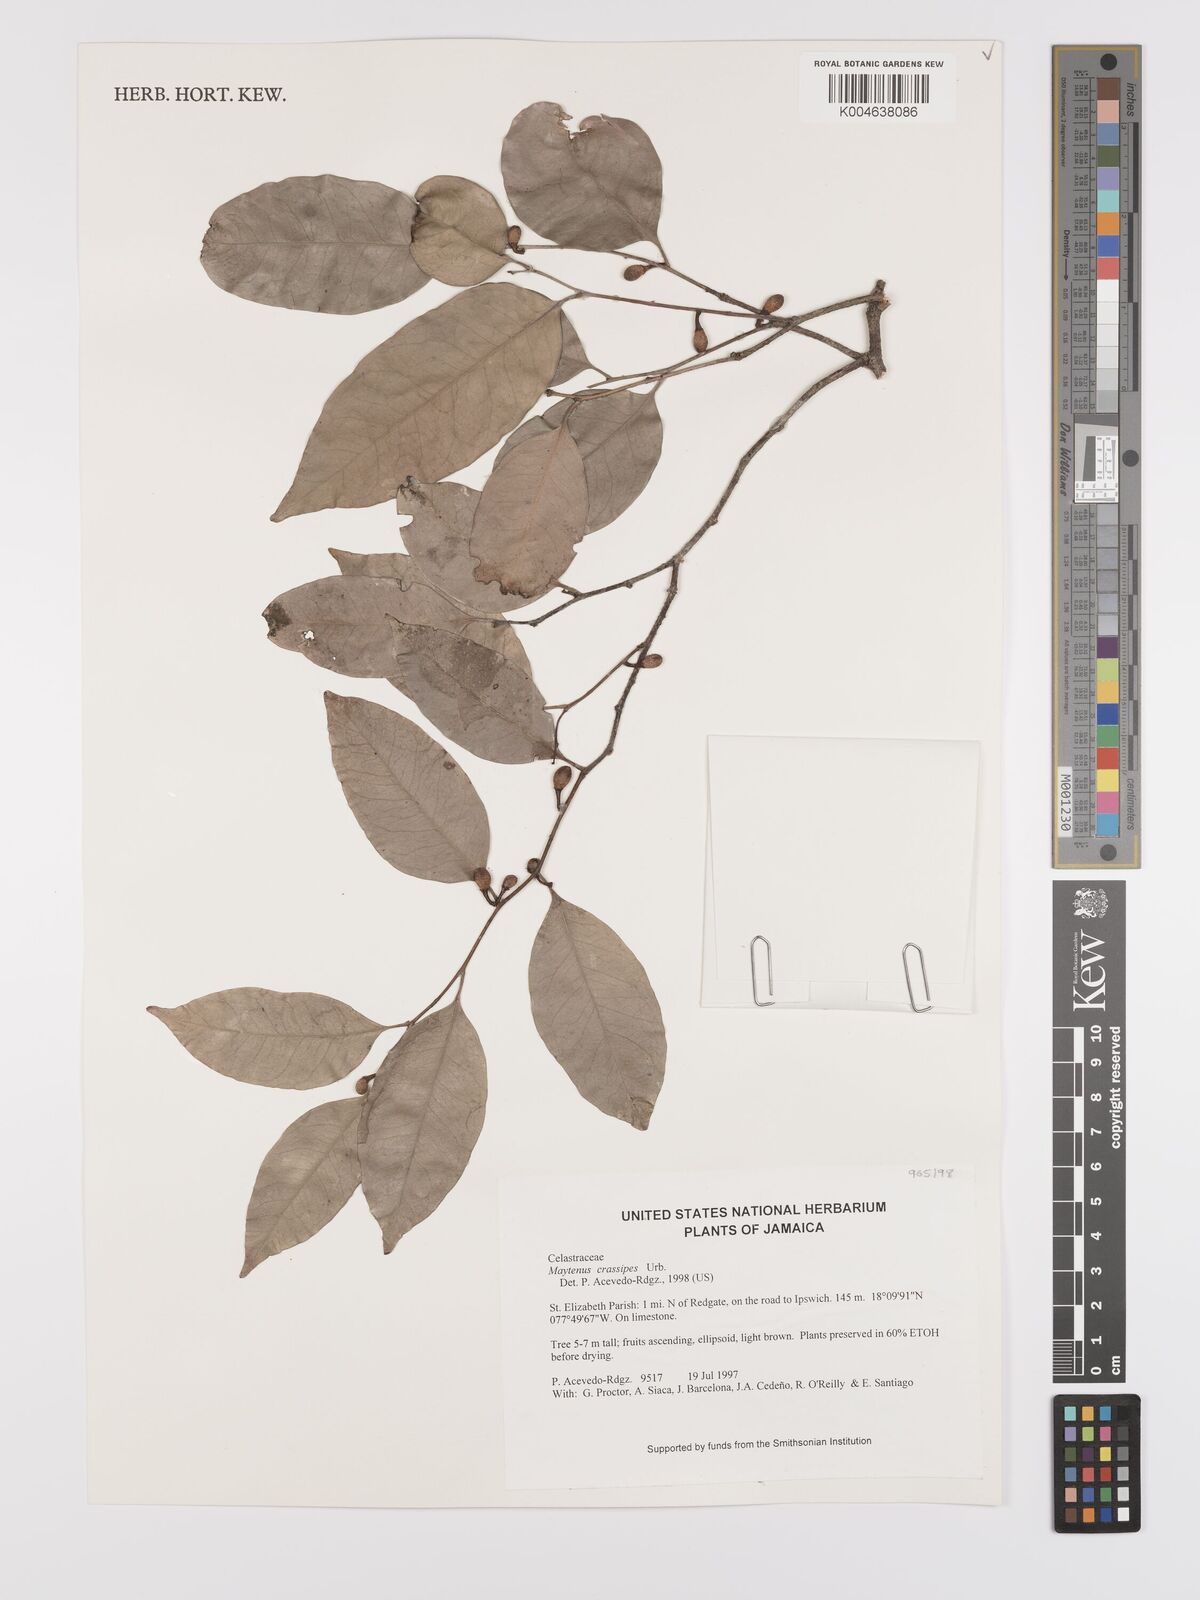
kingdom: Plantae
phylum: Tracheophyta
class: Magnoliopsida
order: Celastrales
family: Celastraceae
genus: Monteverdia
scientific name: Monteverdia crassipes
